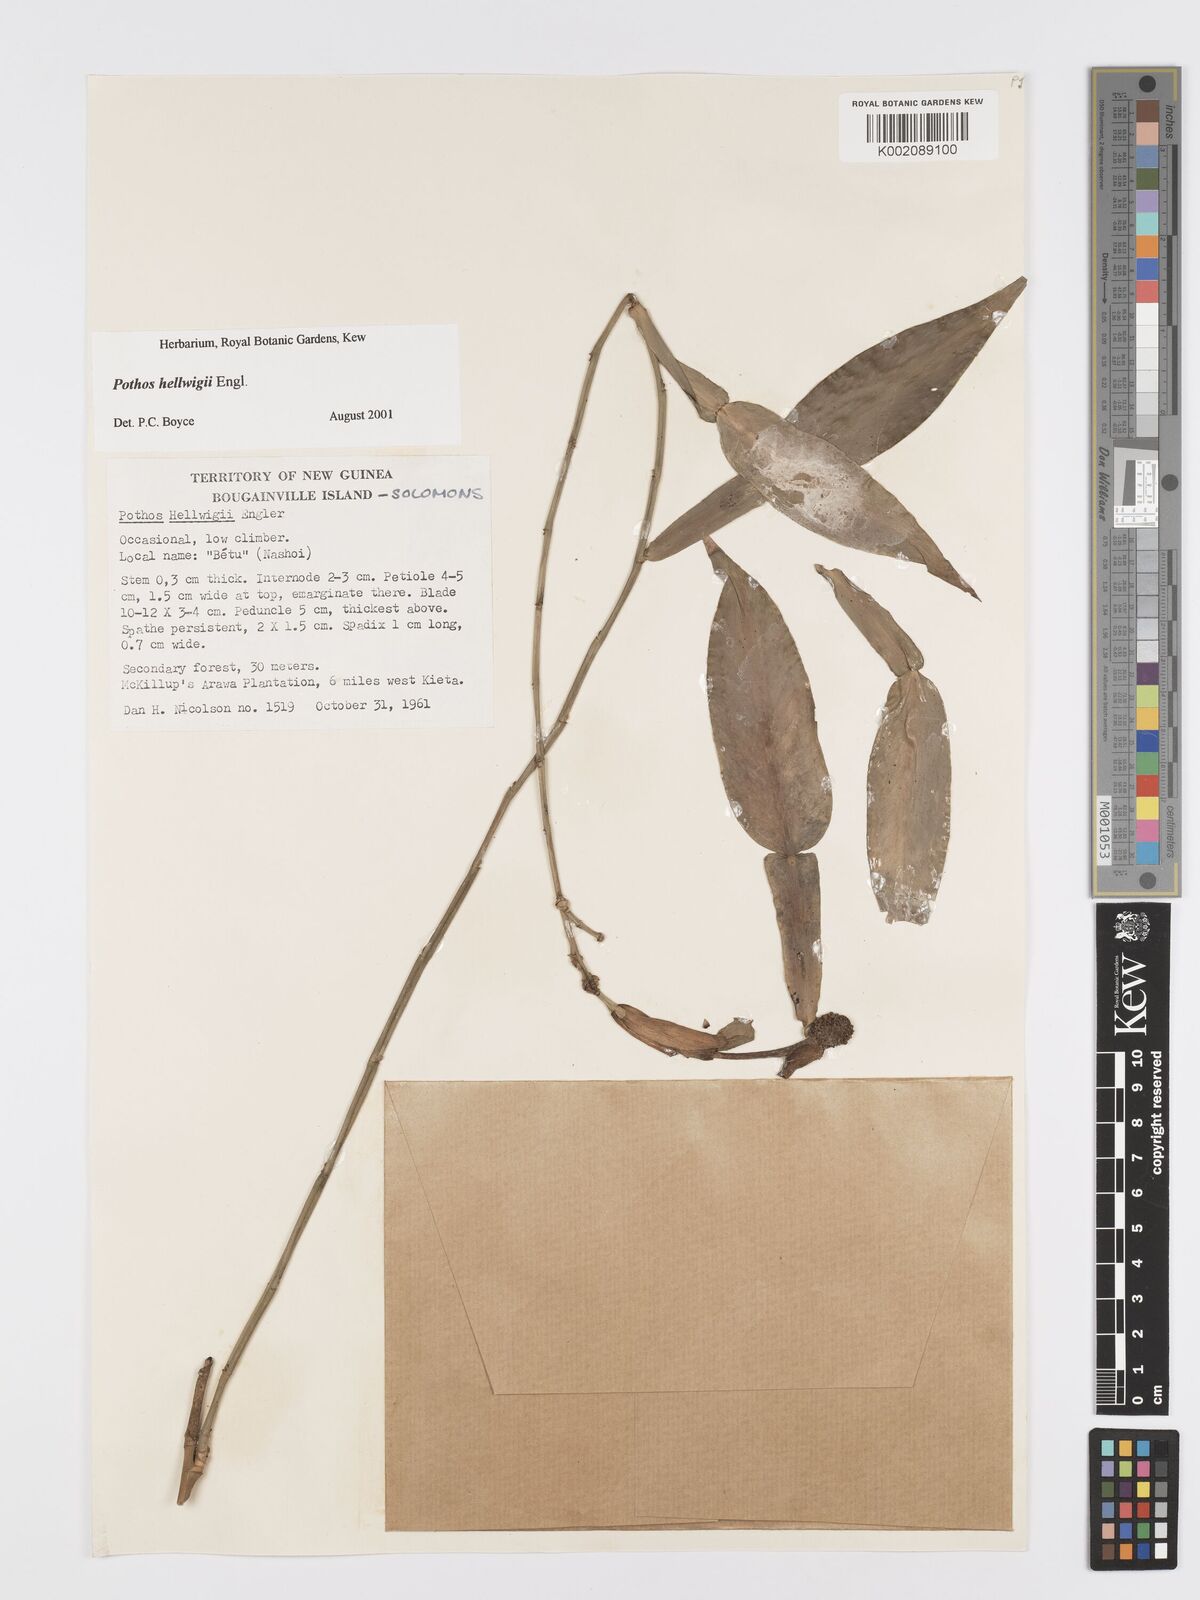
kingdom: Plantae
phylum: Tracheophyta
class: Liliopsida
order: Alismatales
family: Araceae
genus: Pothos
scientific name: Pothos hellwigii
